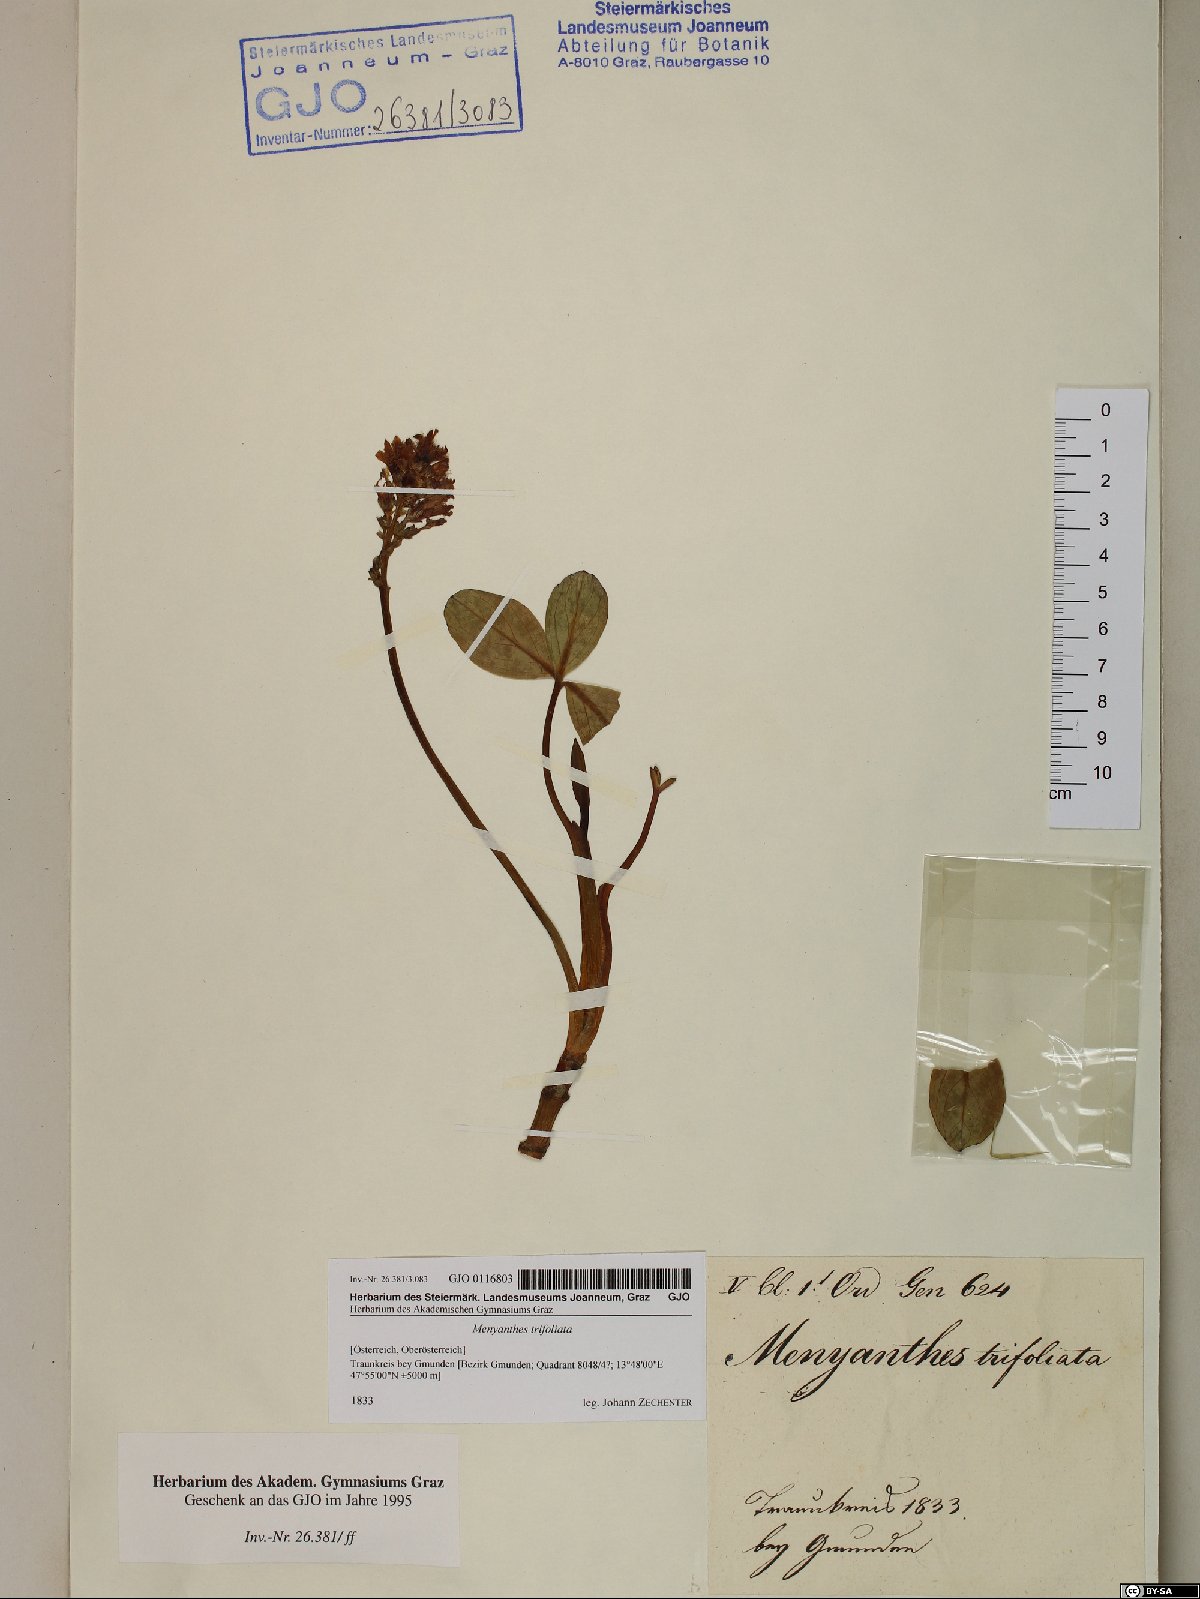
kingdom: Plantae
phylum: Tracheophyta
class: Magnoliopsida
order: Asterales
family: Menyanthaceae
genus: Menyanthes
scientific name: Menyanthes trifoliata
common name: Bogbean
